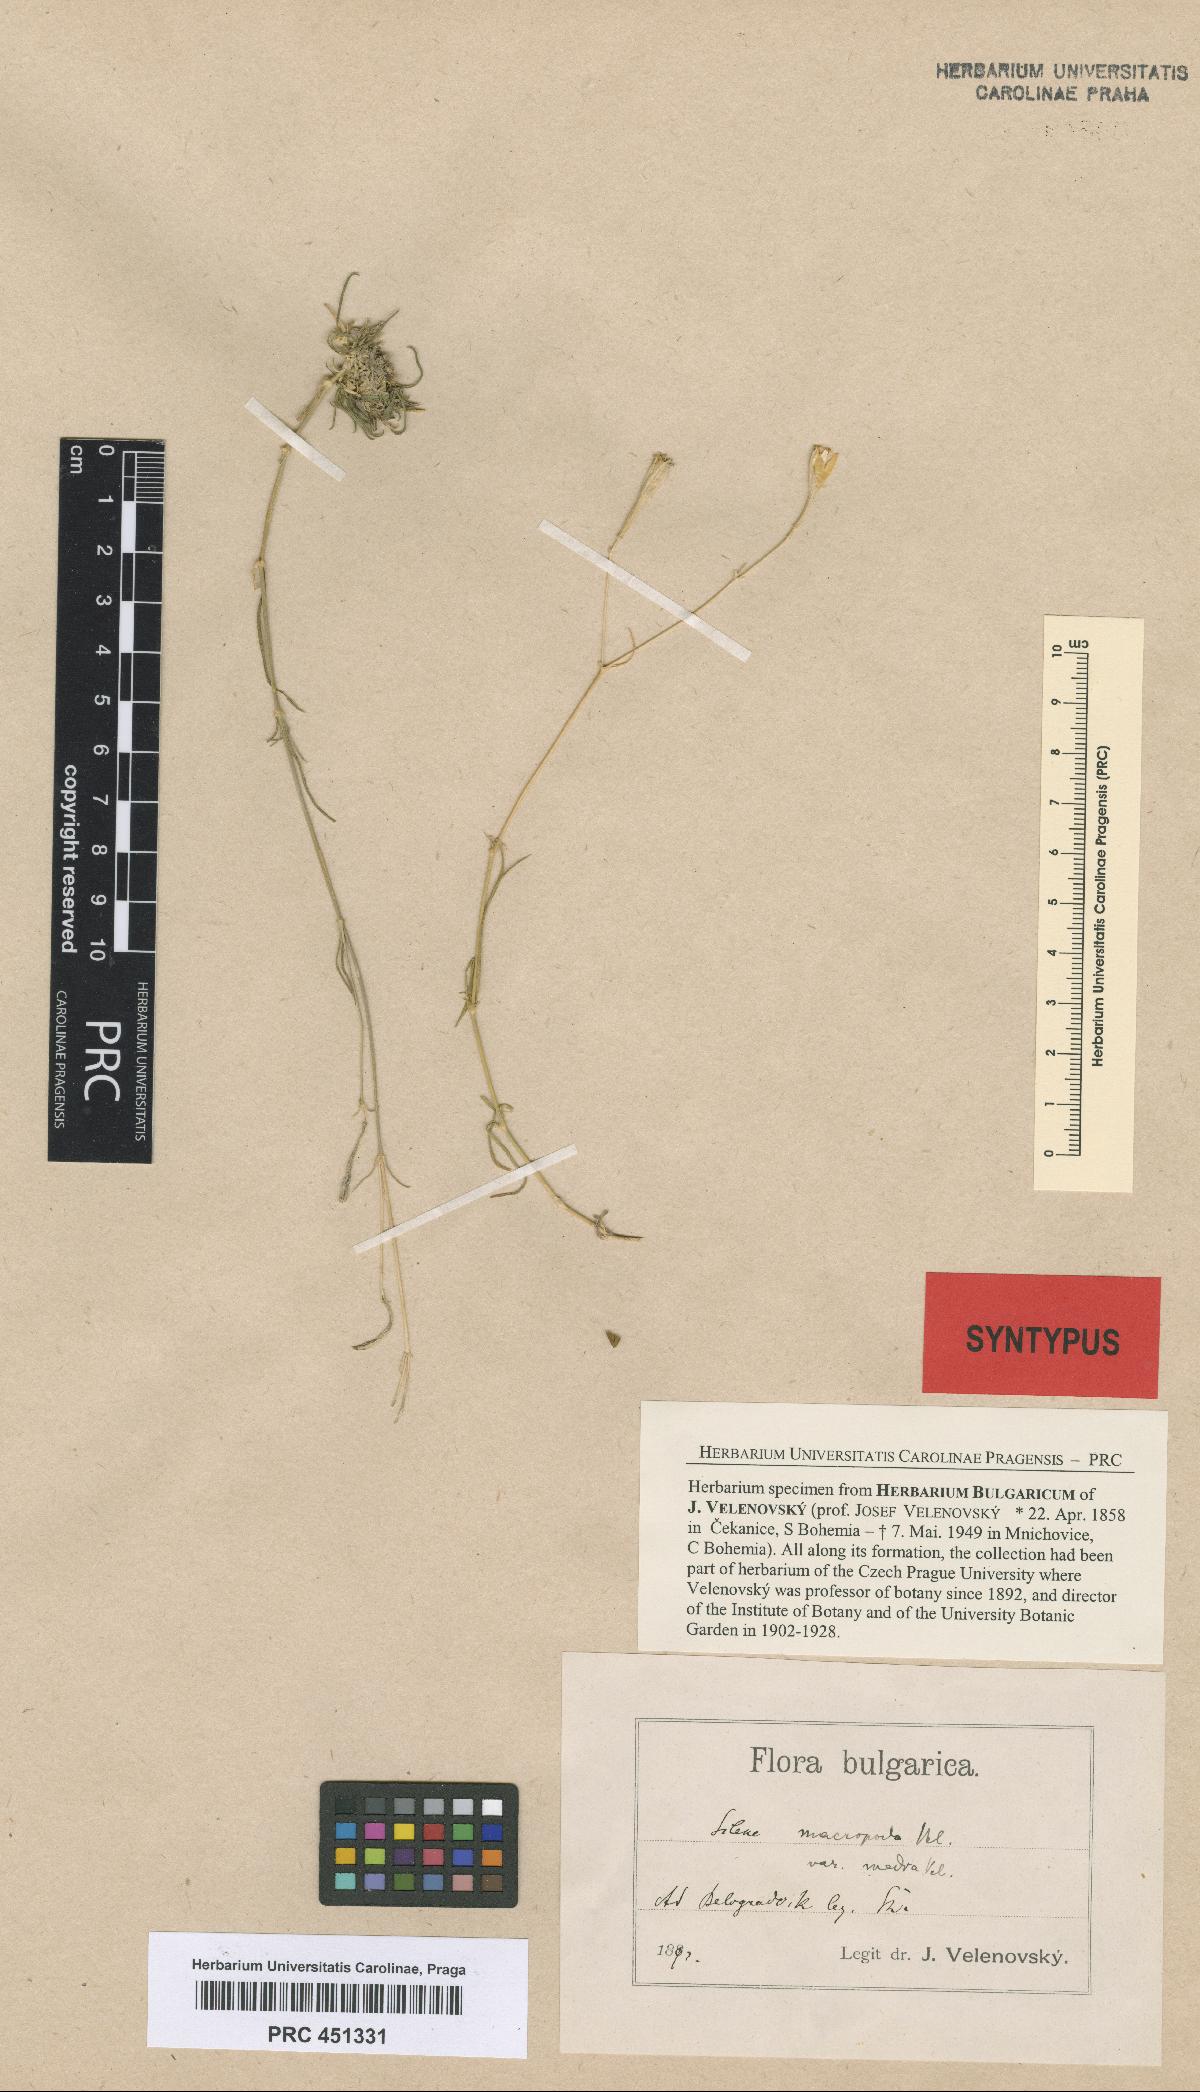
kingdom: Plantae
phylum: Tracheophyta
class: Magnoliopsida
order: Caryophyllales
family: Caryophyllaceae
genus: Silene
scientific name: Silene waldsteinii
